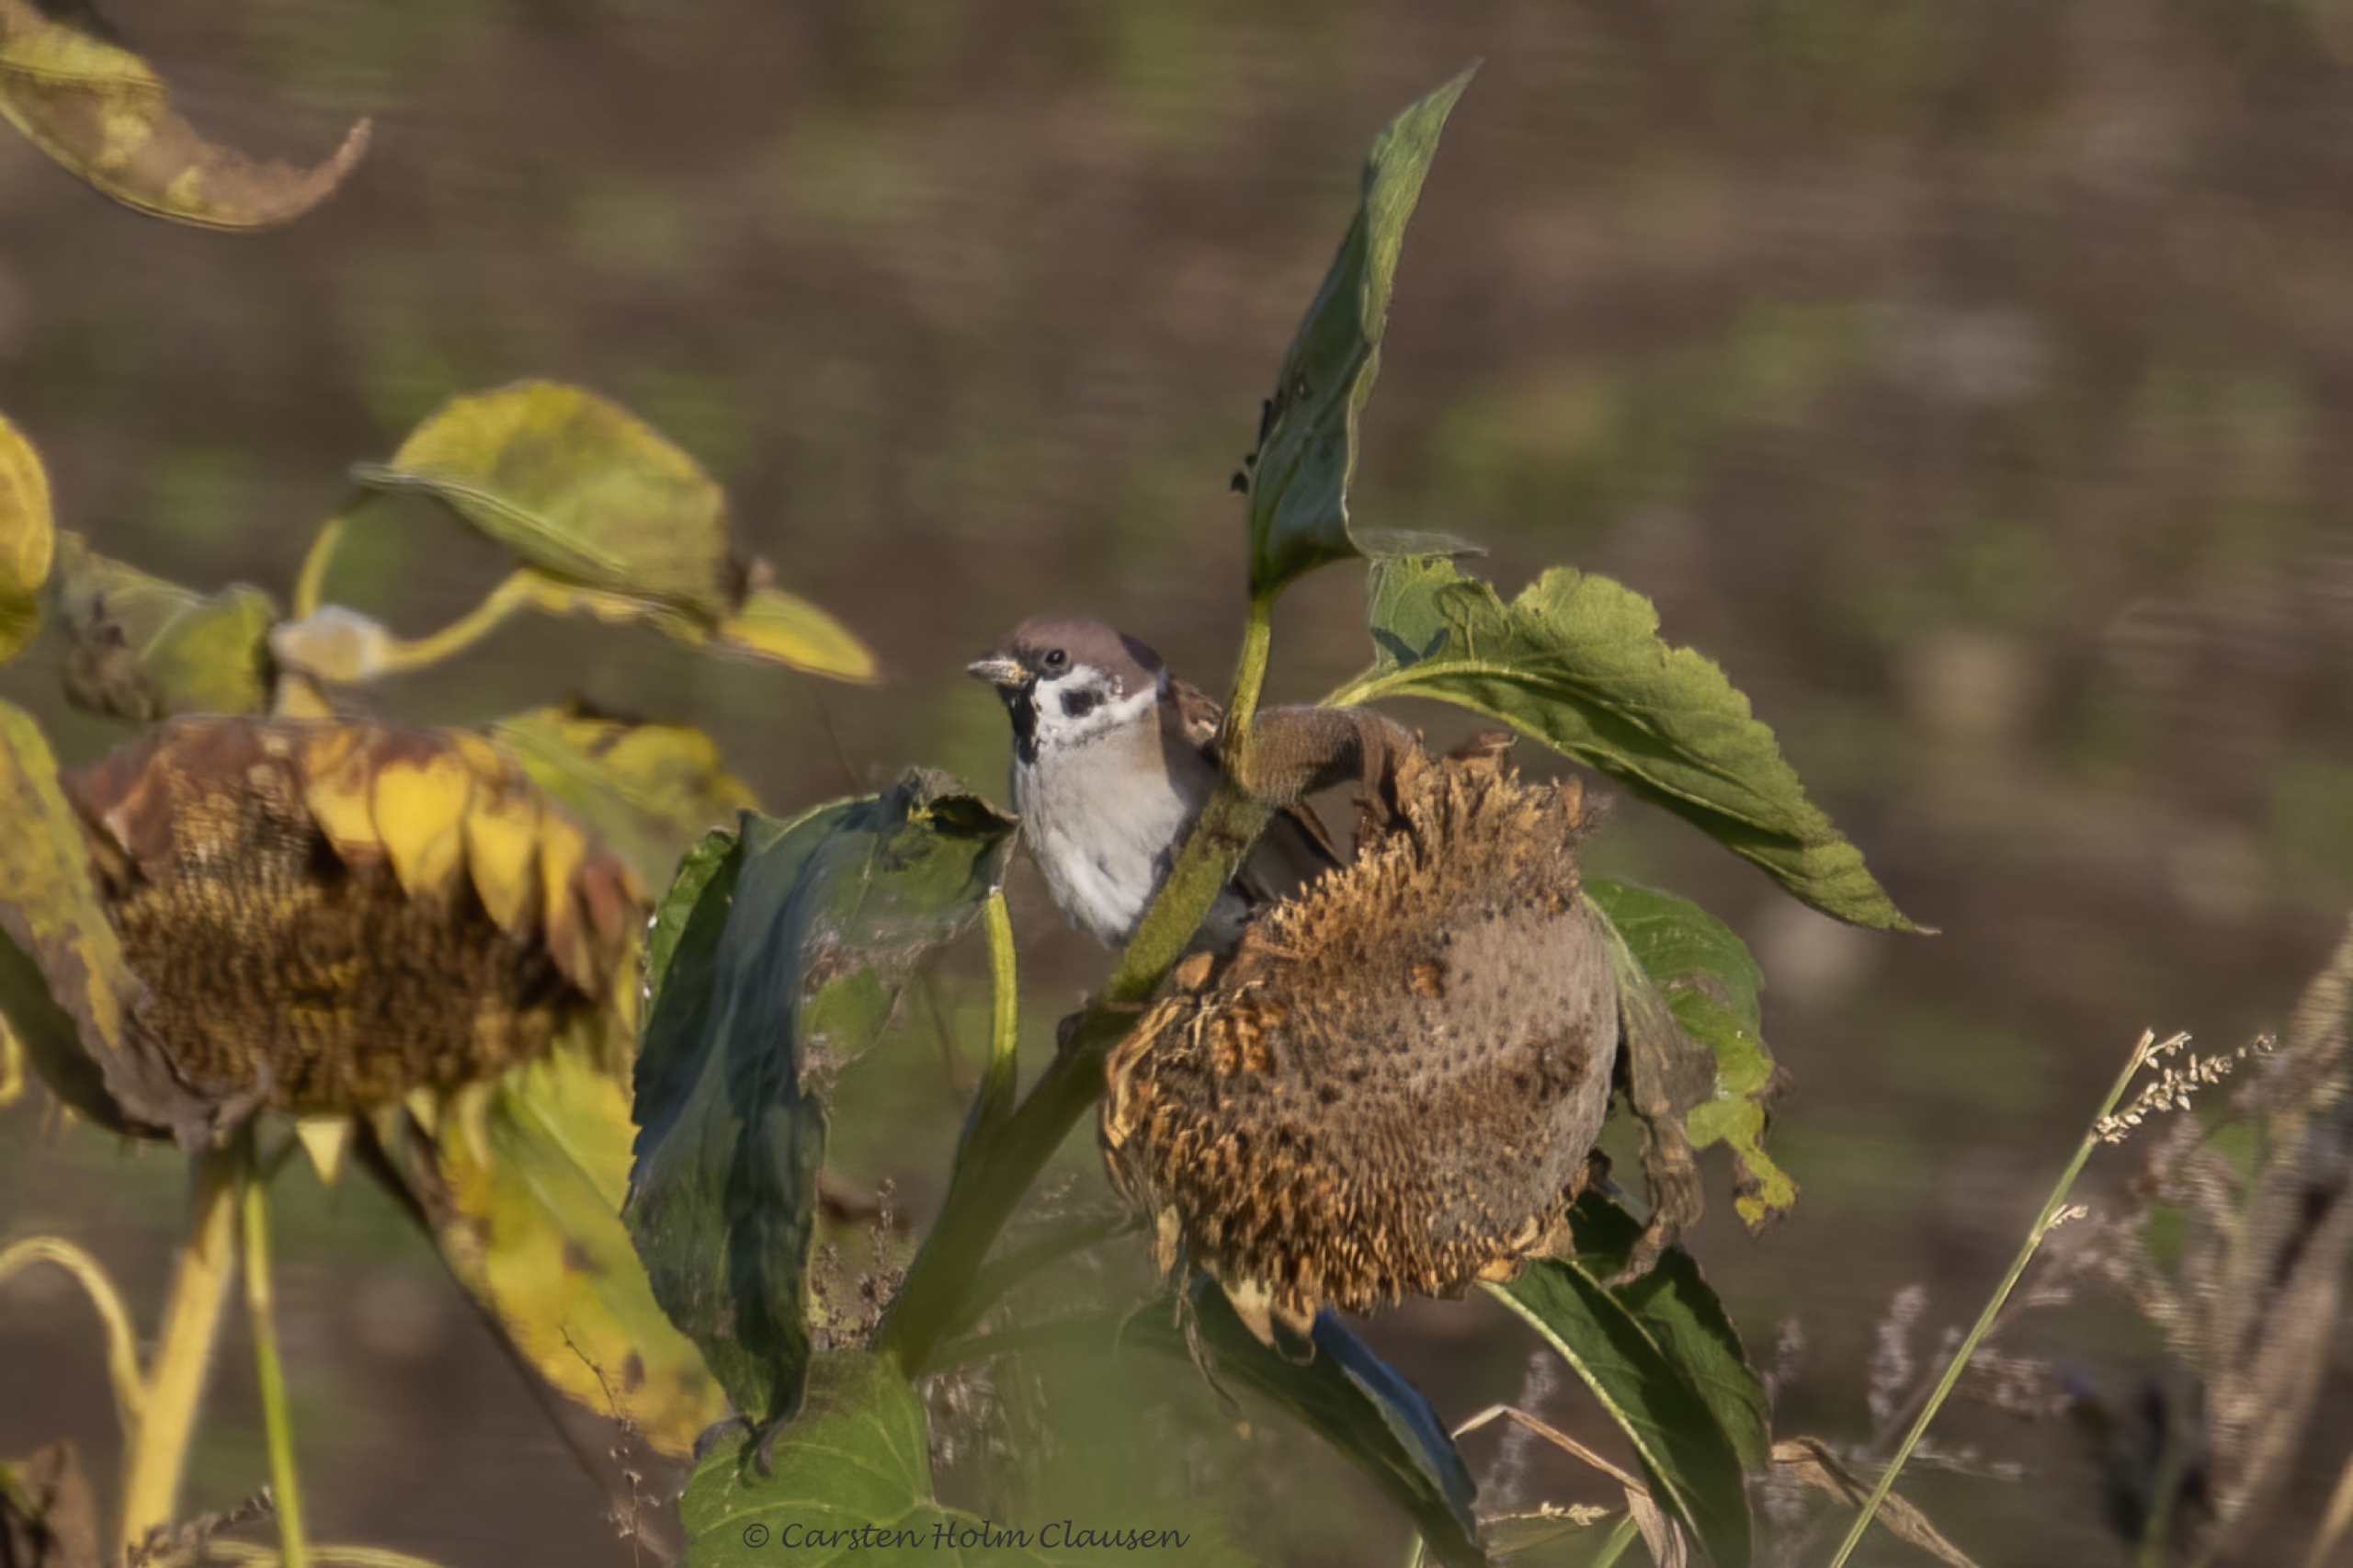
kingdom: Animalia
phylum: Chordata
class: Aves
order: Passeriformes
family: Passeridae
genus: Passer
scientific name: Passer montanus
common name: Skovspurv
